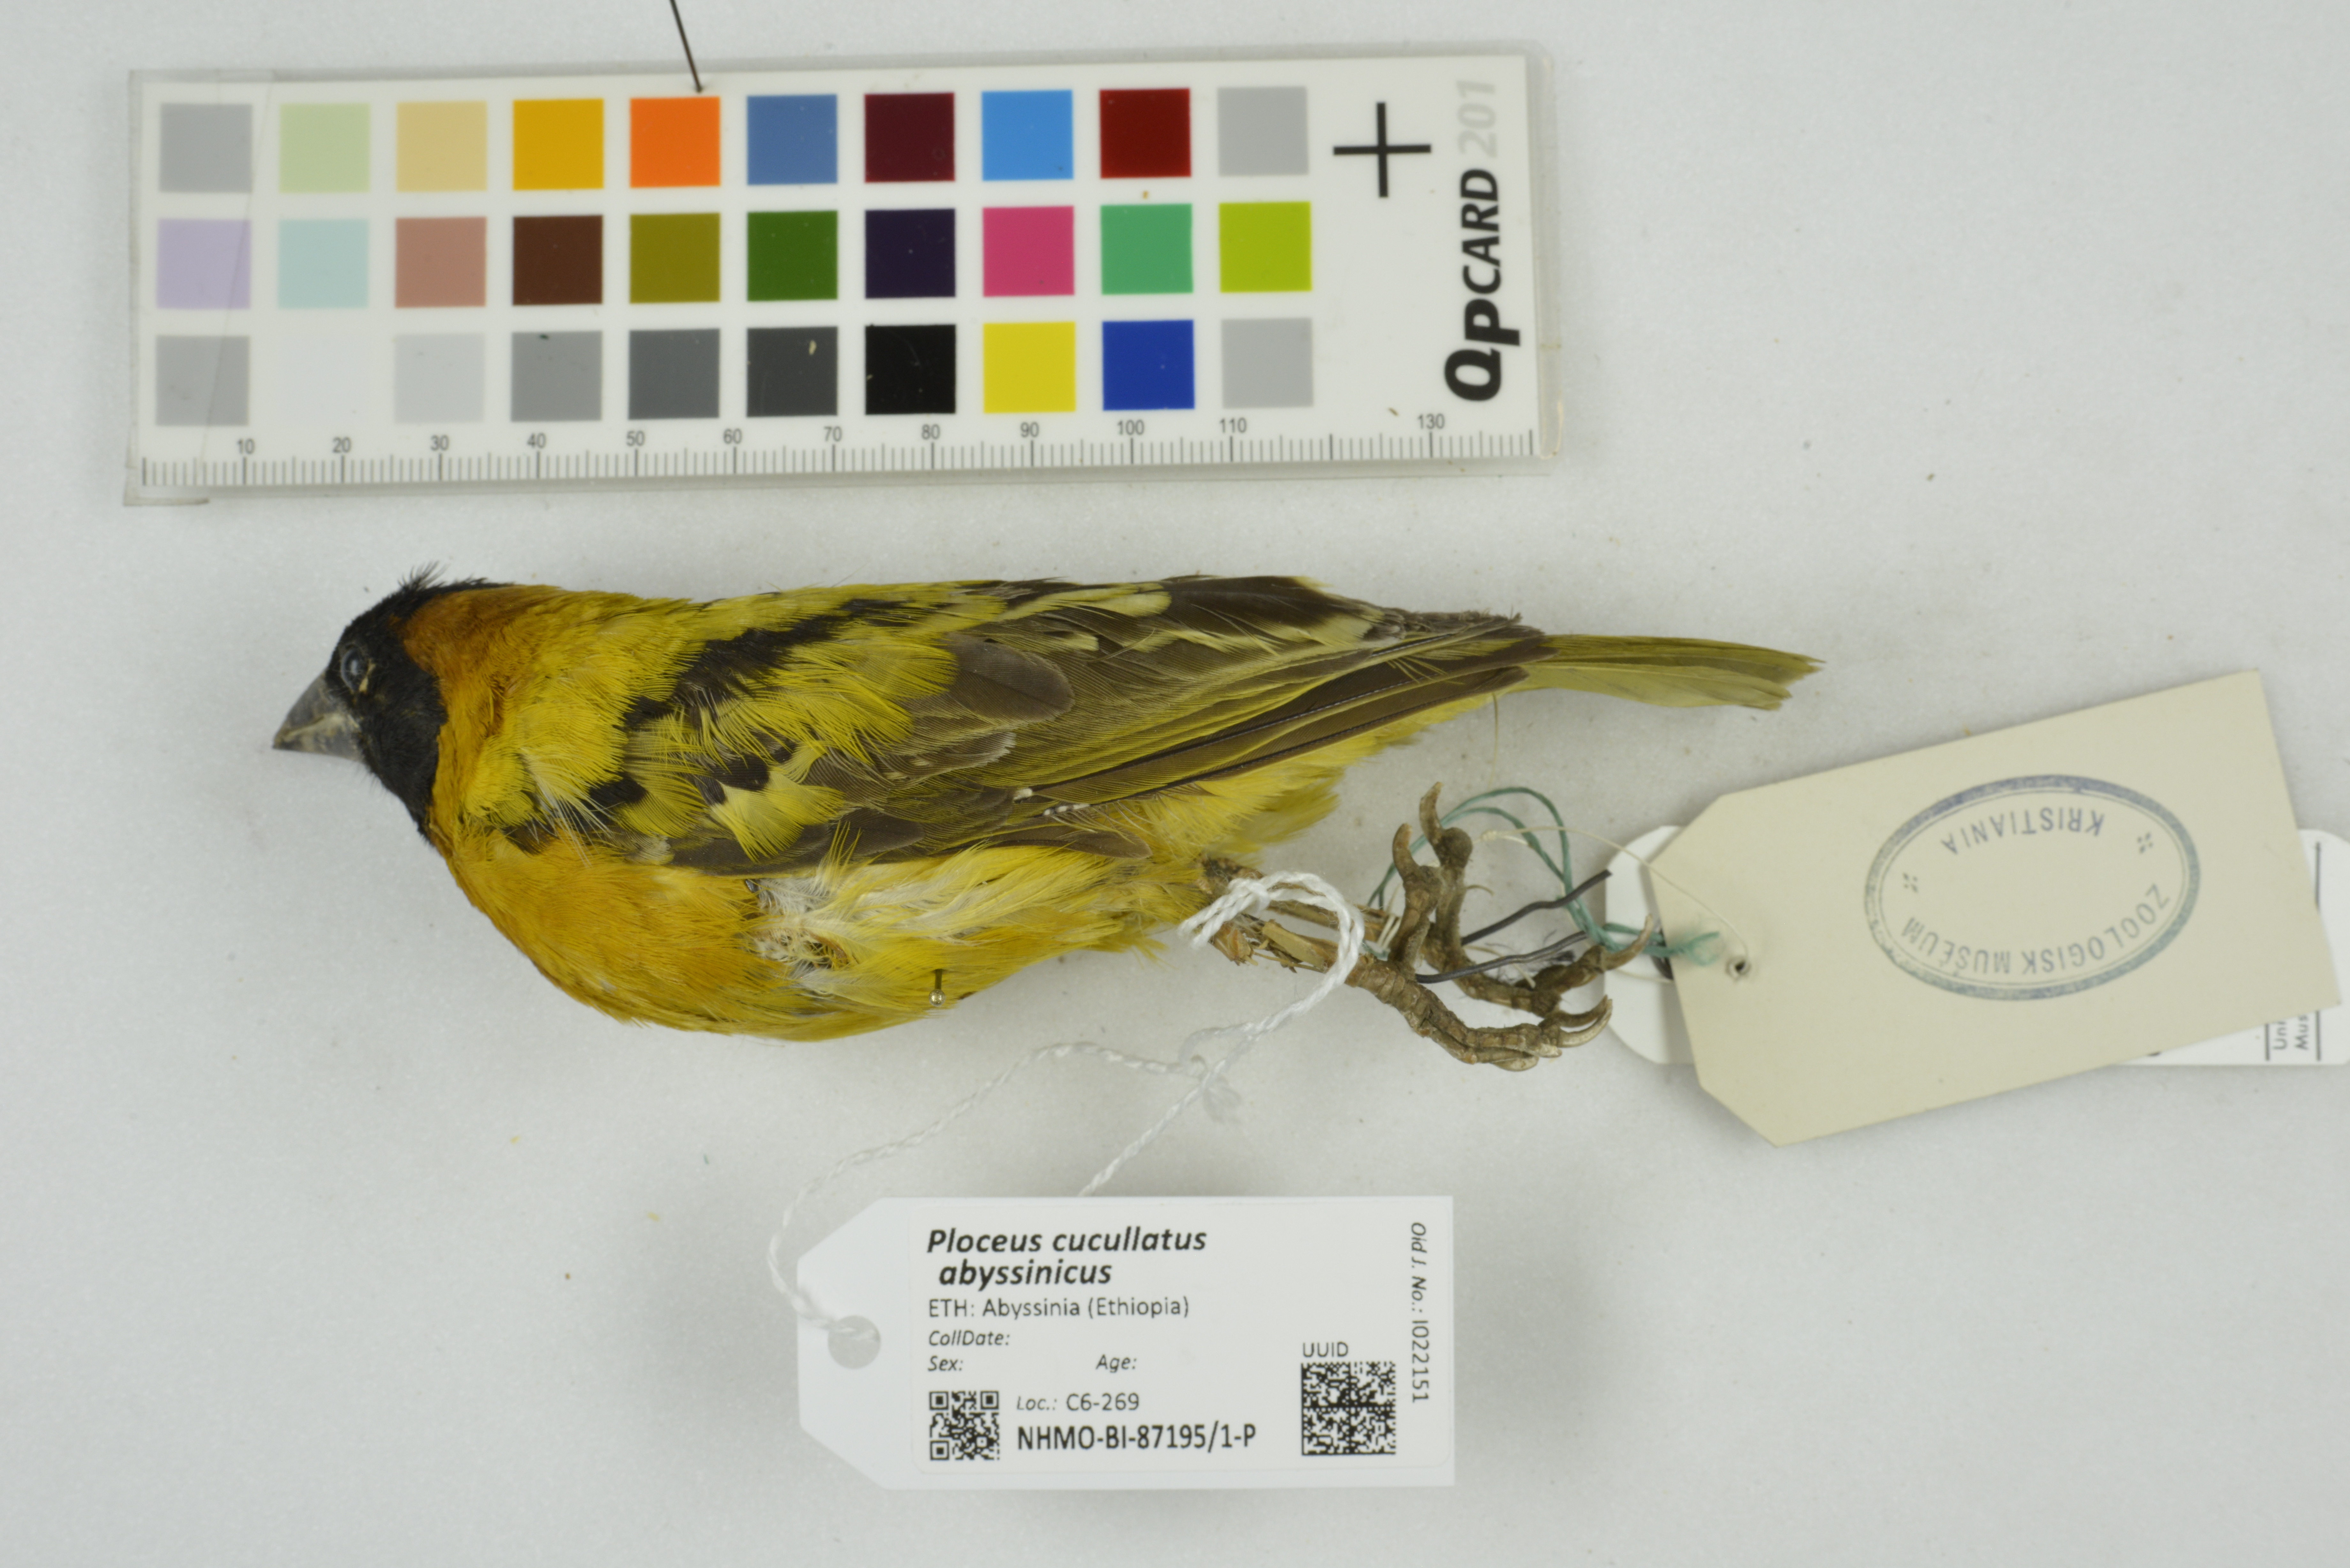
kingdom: Animalia
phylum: Chordata
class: Aves
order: Passeriformes
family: Ploceidae
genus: Ploceus
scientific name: Ploceus cucullatus
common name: Village weaver
